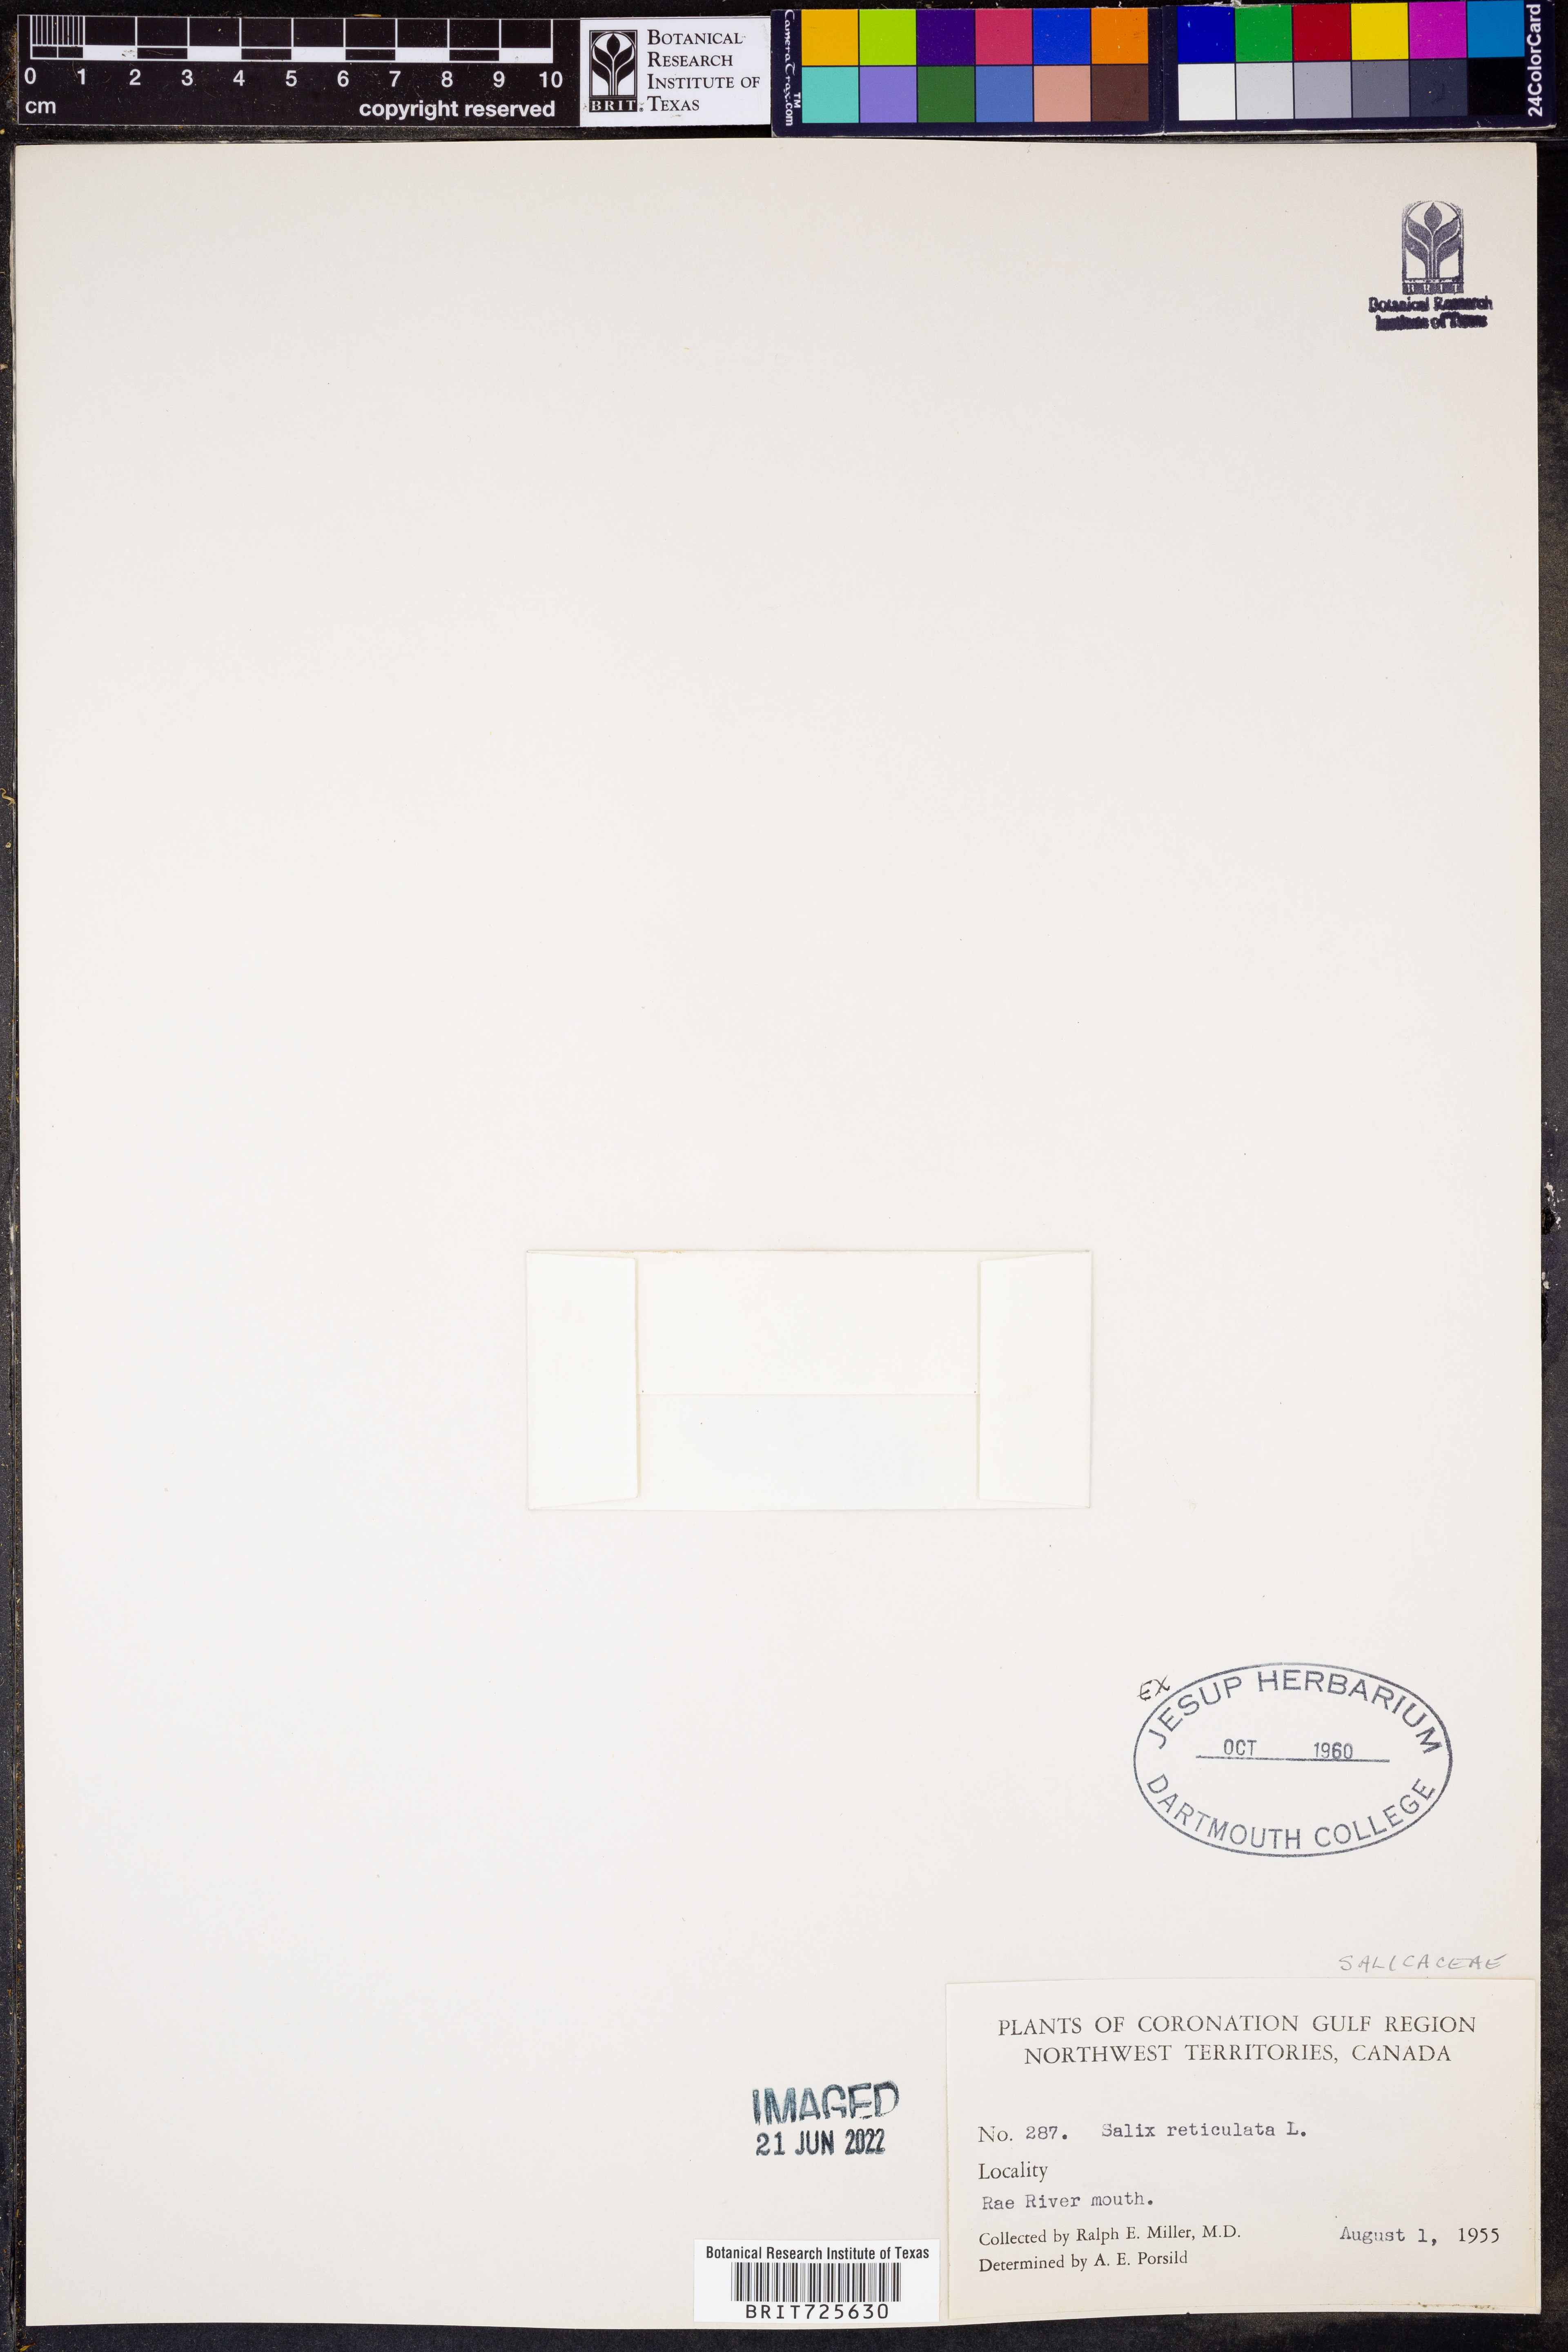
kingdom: Plantae
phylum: Tracheophyta
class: Magnoliopsida
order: Malpighiales
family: Salicaceae
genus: Salix
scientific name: Salix
